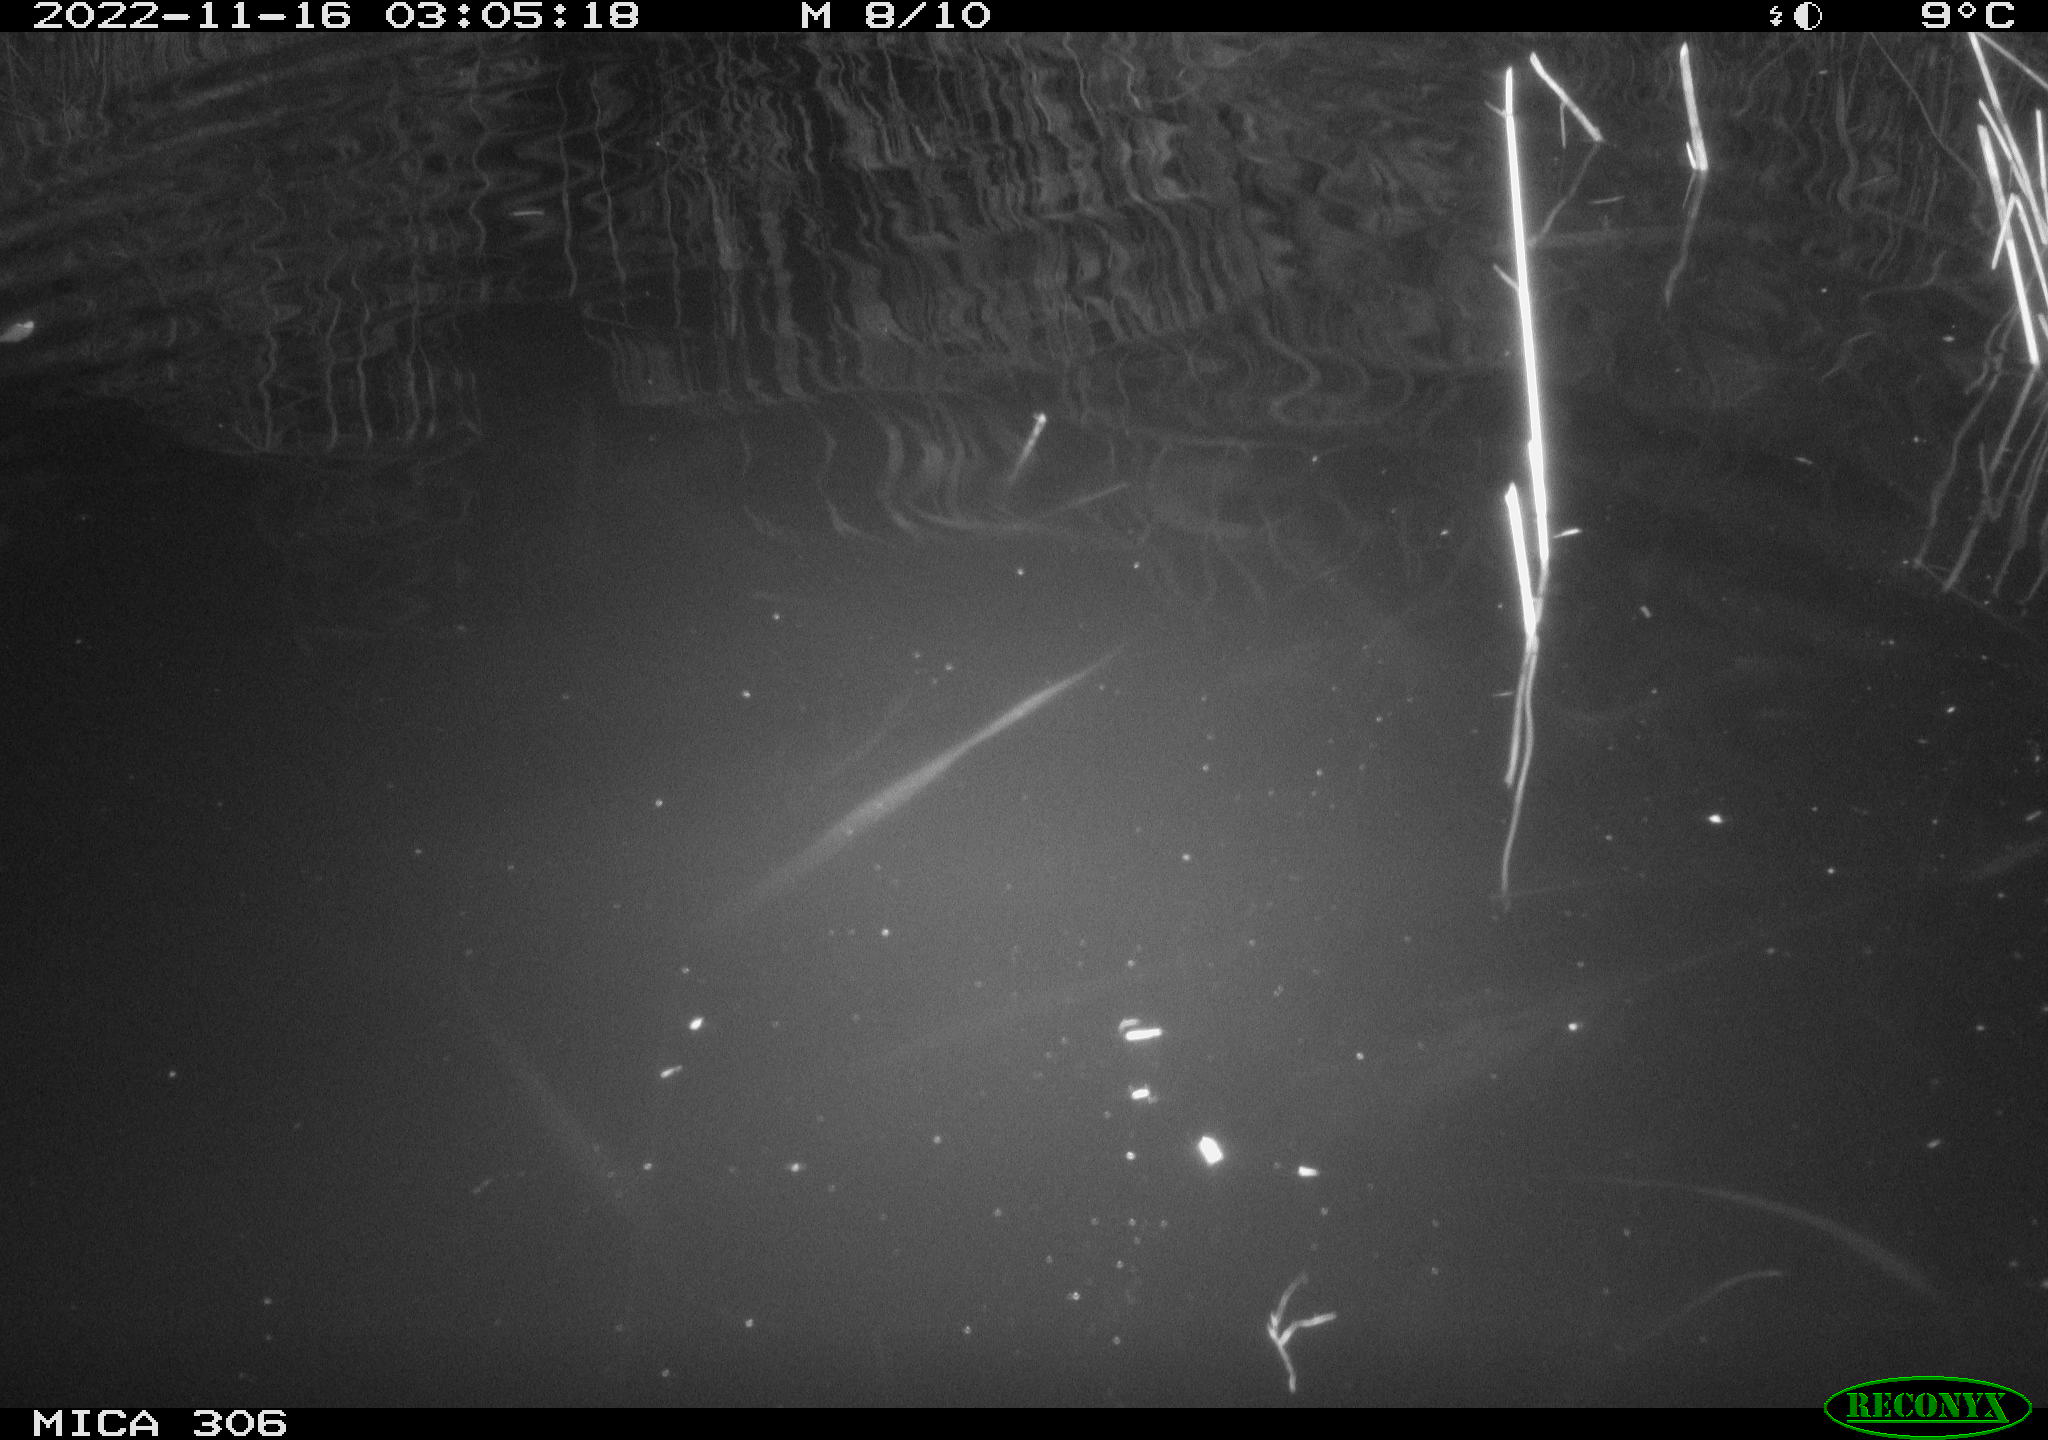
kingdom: Animalia
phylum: Chordata
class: Mammalia
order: Rodentia
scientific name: Rodentia
